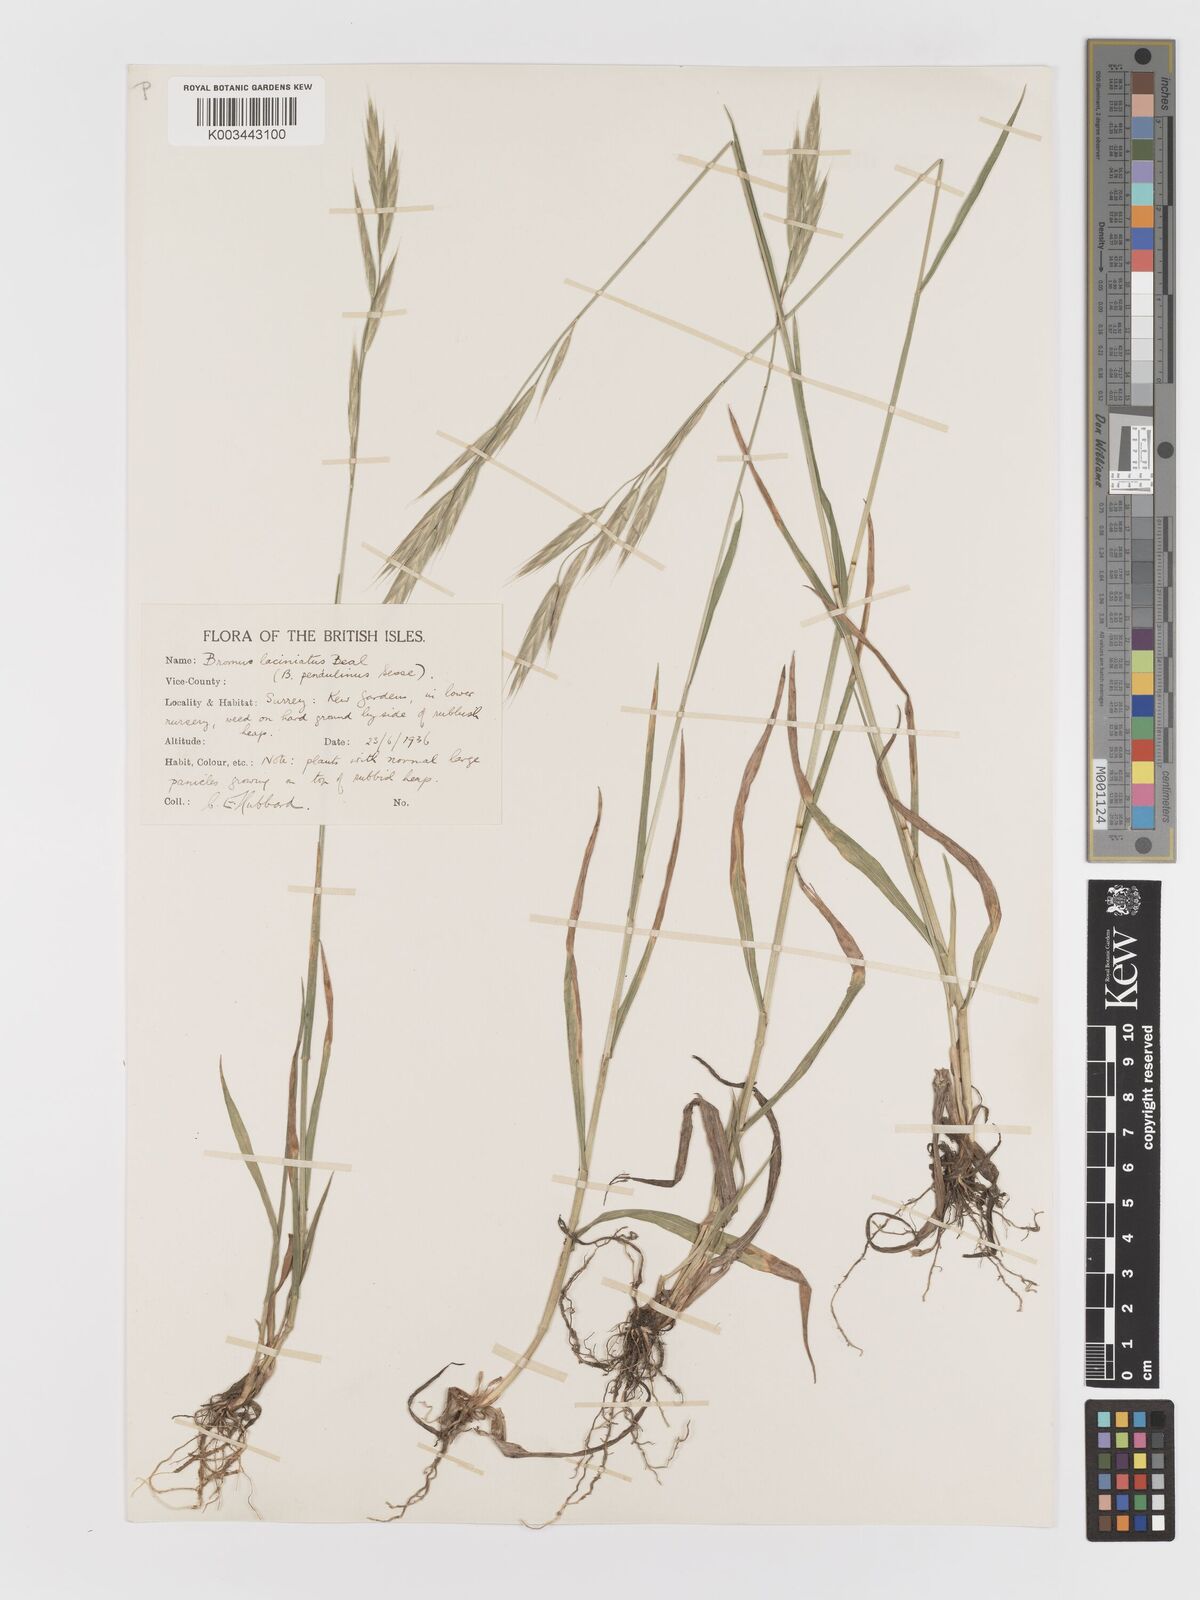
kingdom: Plantae
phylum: Tracheophyta
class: Liliopsida
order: Poales
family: Poaceae
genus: Bromus
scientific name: Bromus carinatus
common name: Mountain brome
